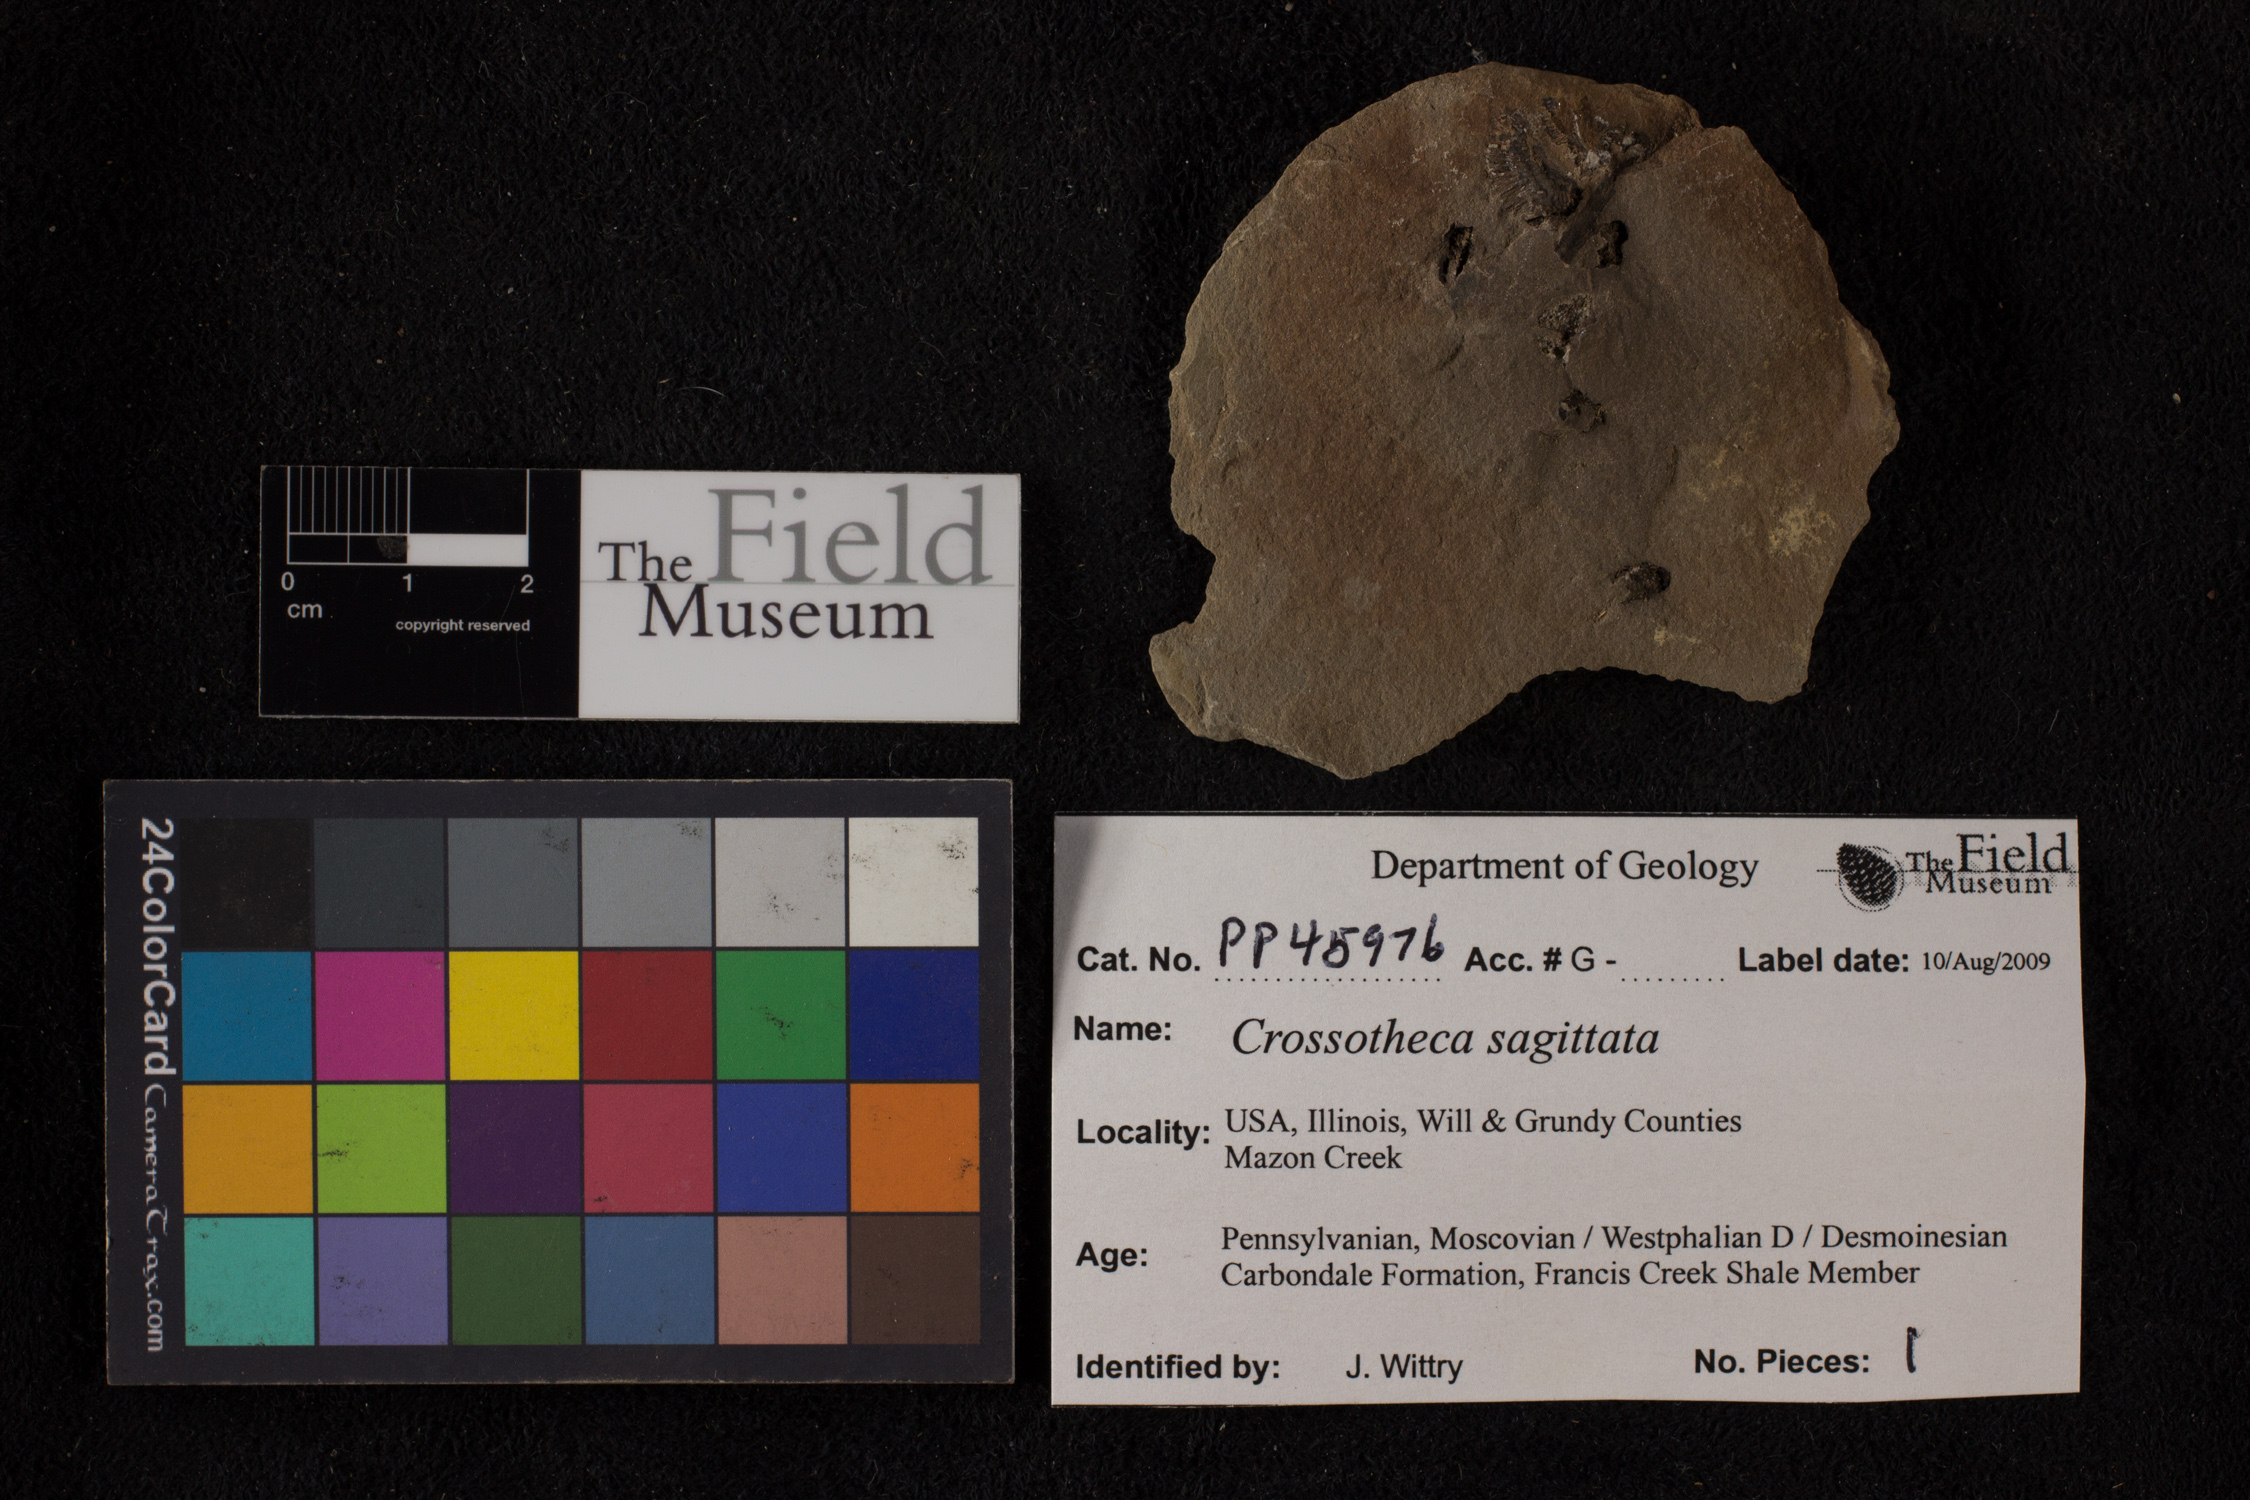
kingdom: Plantae
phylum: Tracheophyta
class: Polypodiopsida
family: Stauropteridaceae
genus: Crossotheca
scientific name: Crossotheca
